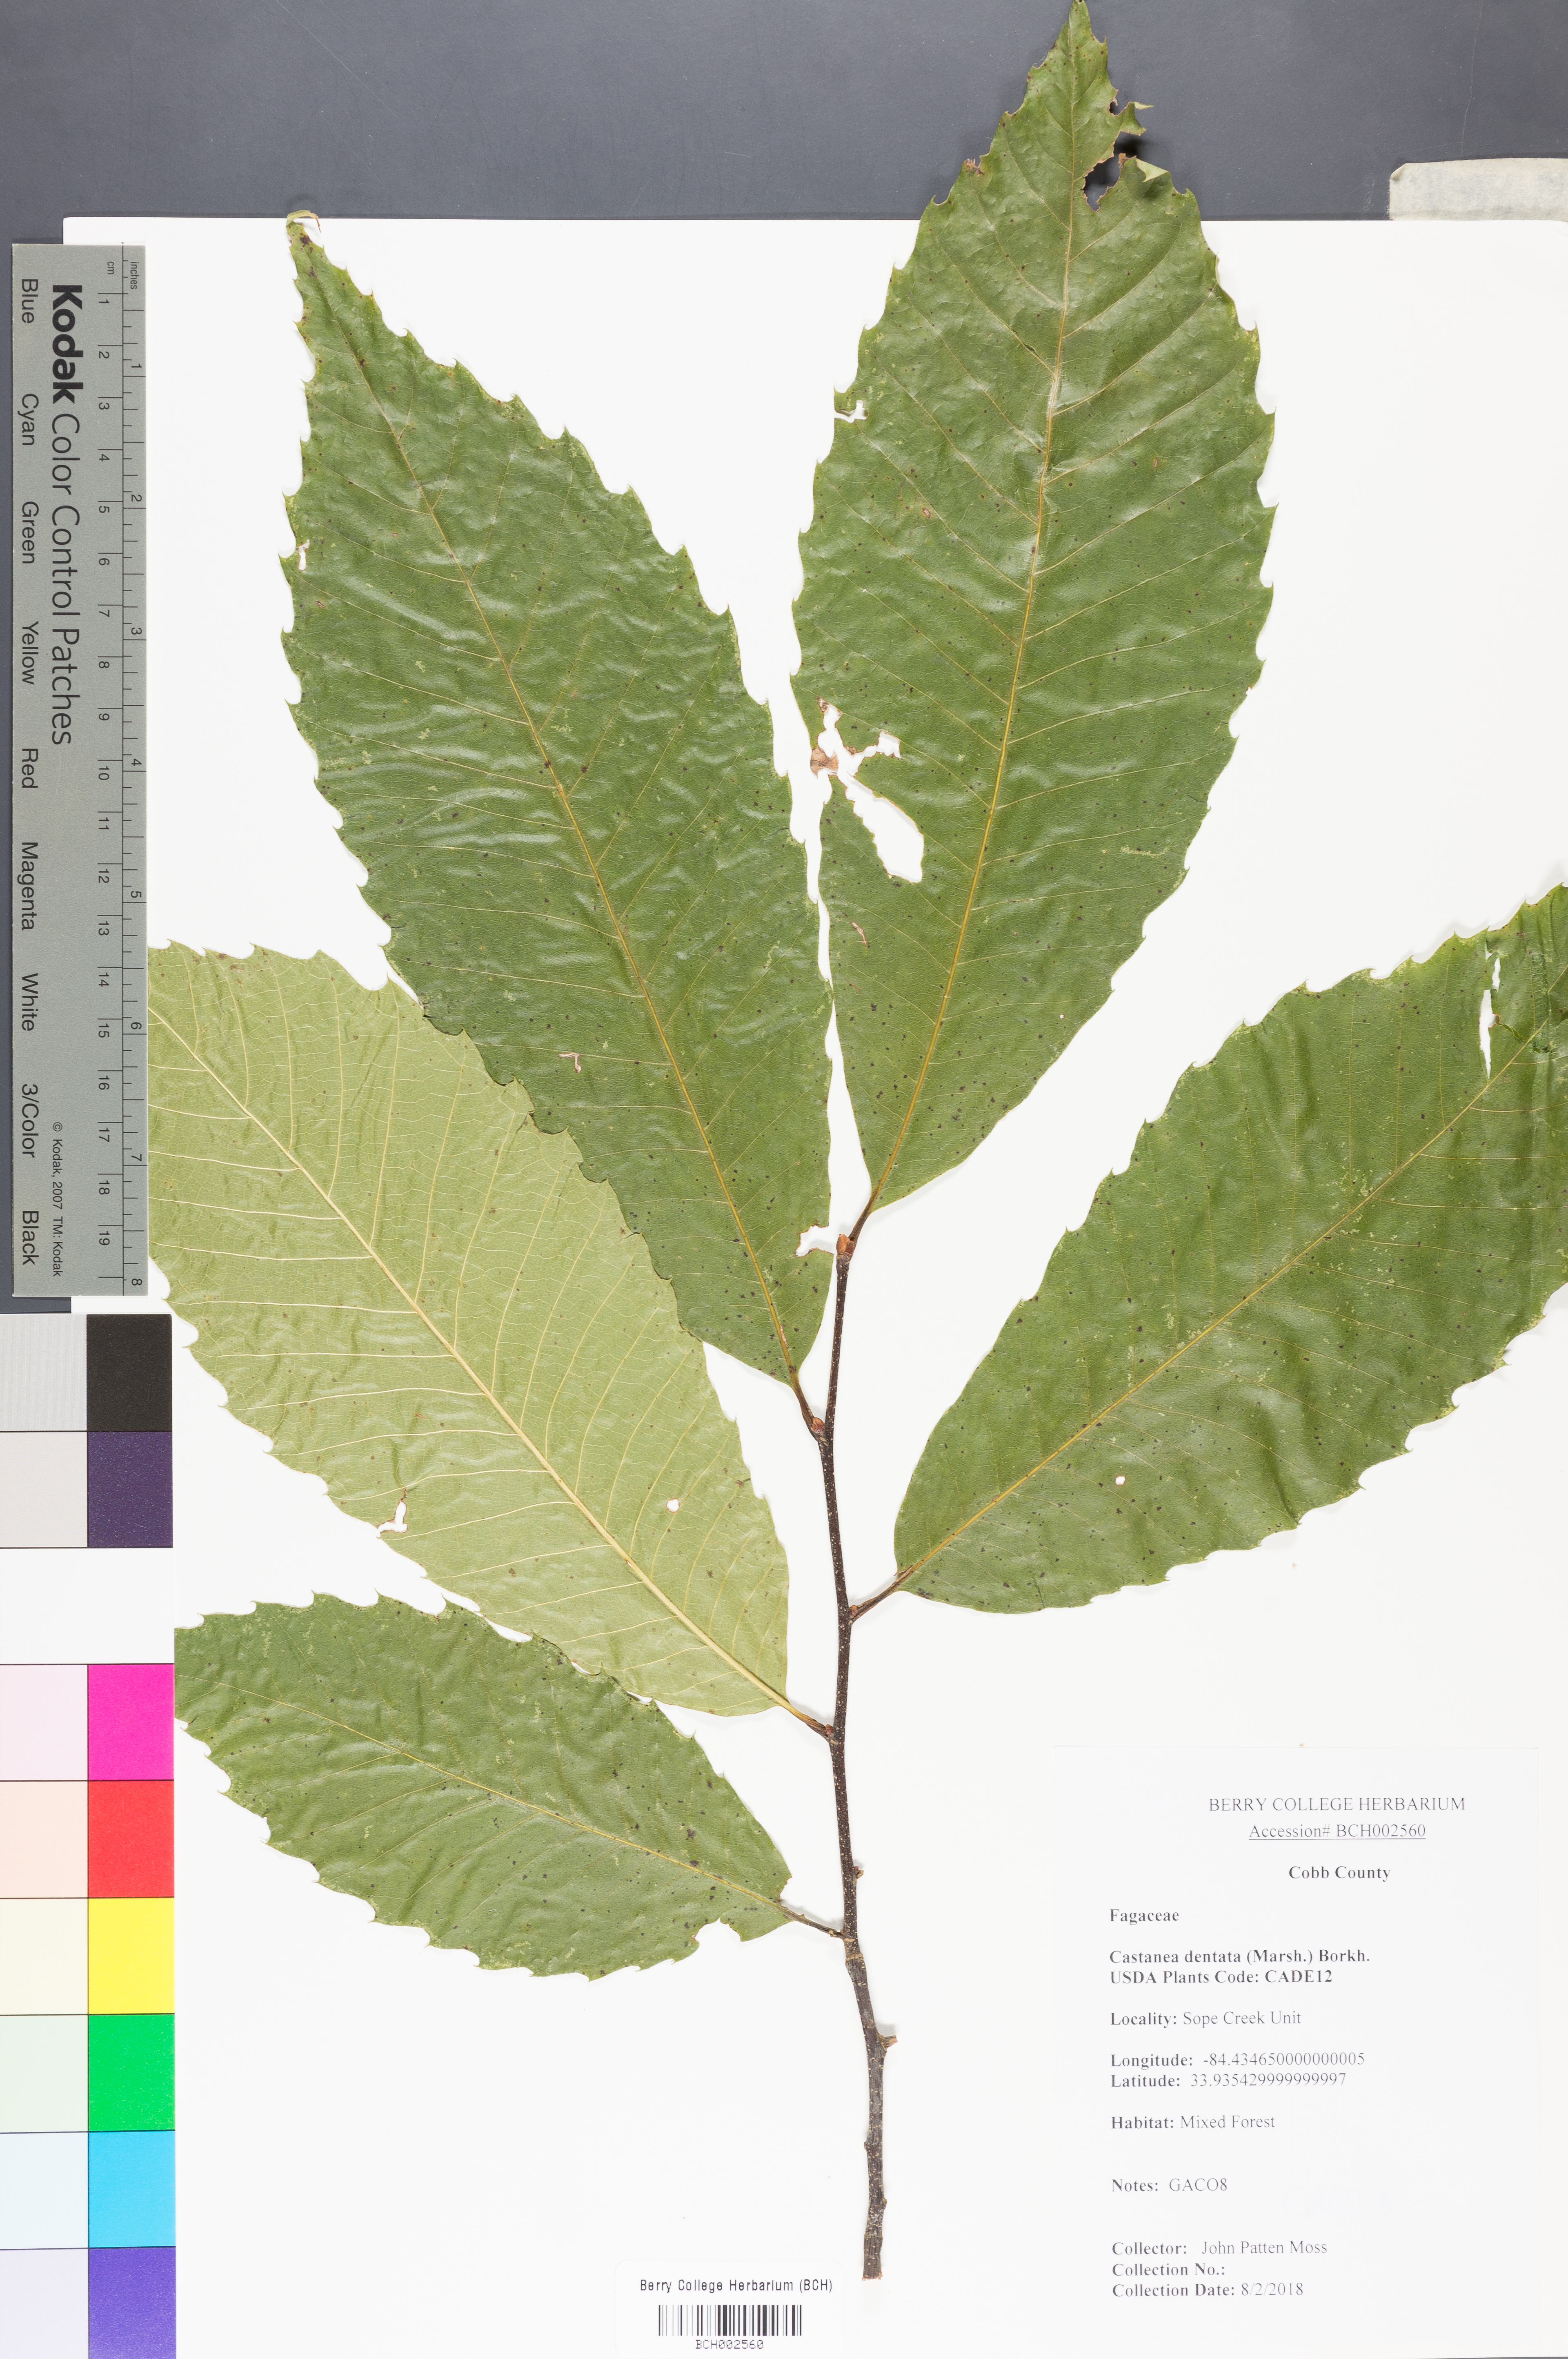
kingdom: Plantae
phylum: Tracheophyta
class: Magnoliopsida
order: Fagales
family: Fagaceae
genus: Castanea
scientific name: Castanea dentata
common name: American chestnut
